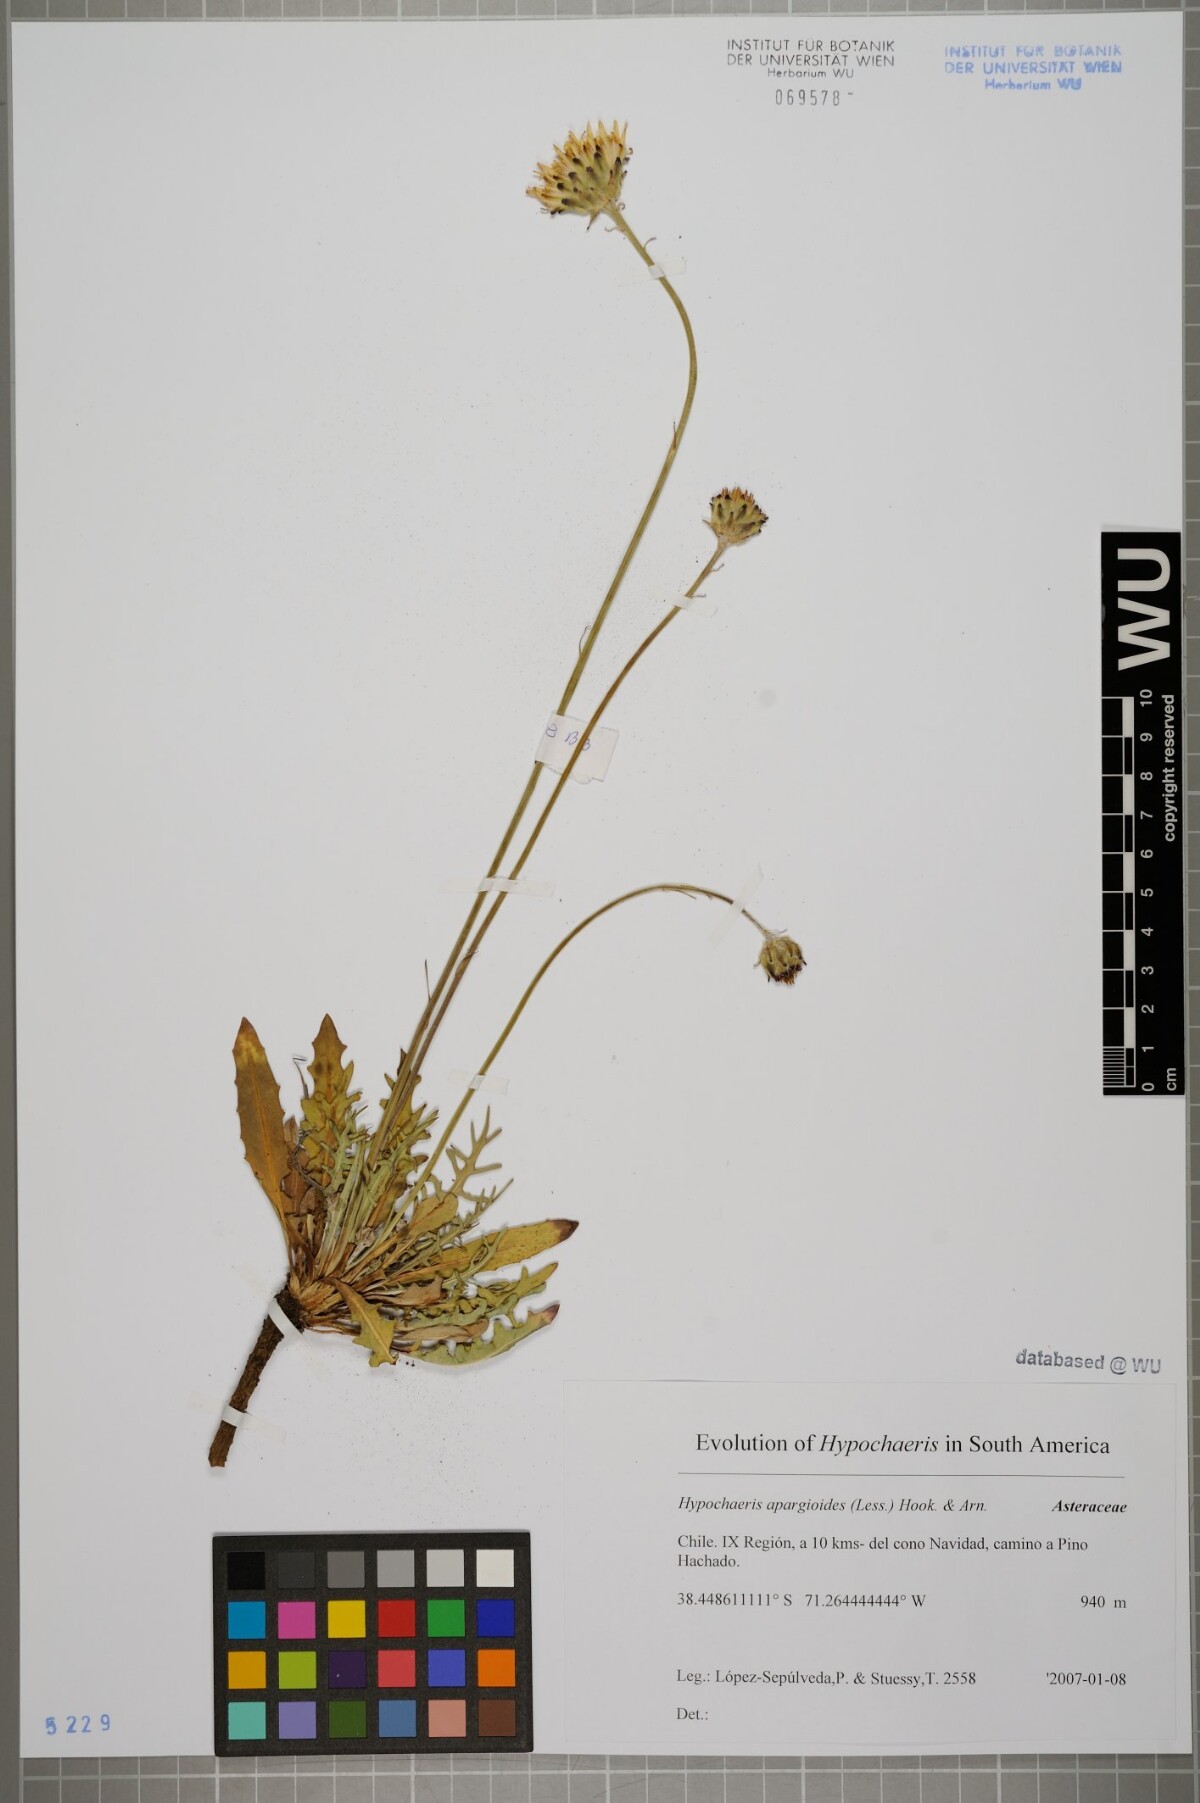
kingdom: Plantae
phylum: Tracheophyta
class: Magnoliopsida
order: Asterales
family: Asteraceae
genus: Hypochaeris
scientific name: Hypochaeris apargioides
